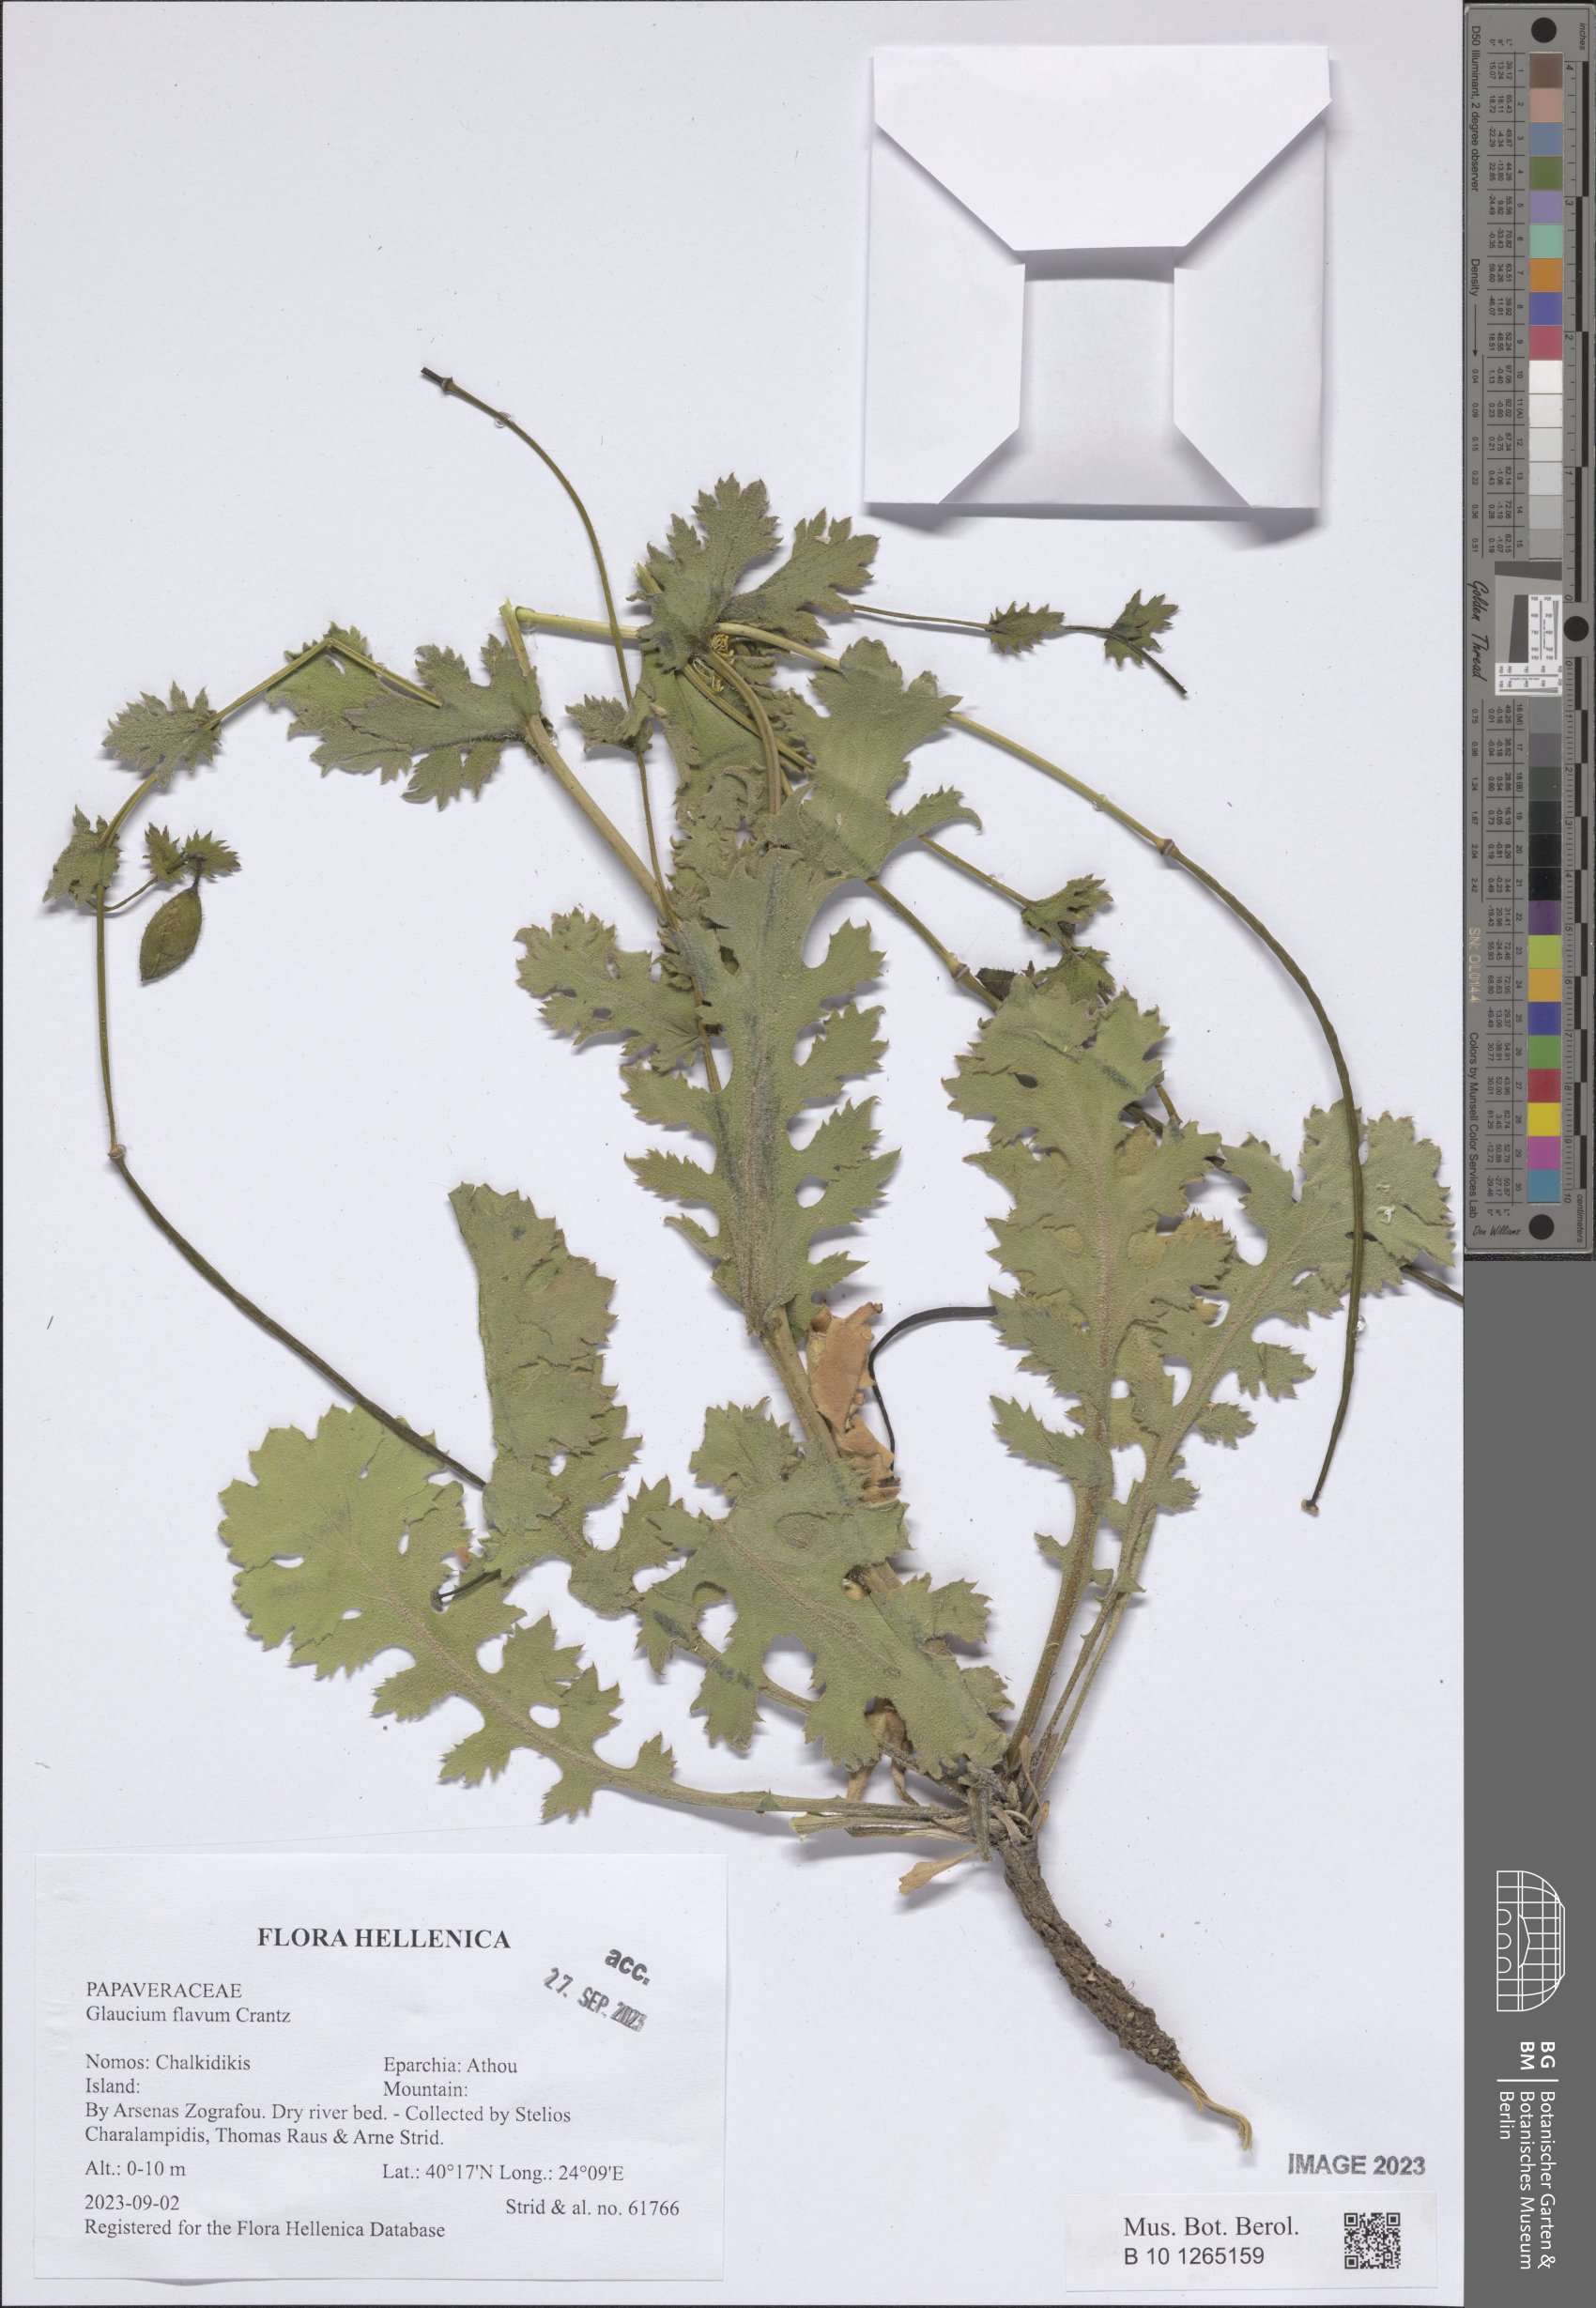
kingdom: Plantae
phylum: Tracheophyta
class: Magnoliopsida
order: Ranunculales
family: Papaveraceae
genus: Glaucium
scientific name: Glaucium flavum
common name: Yellow horned-poppy
